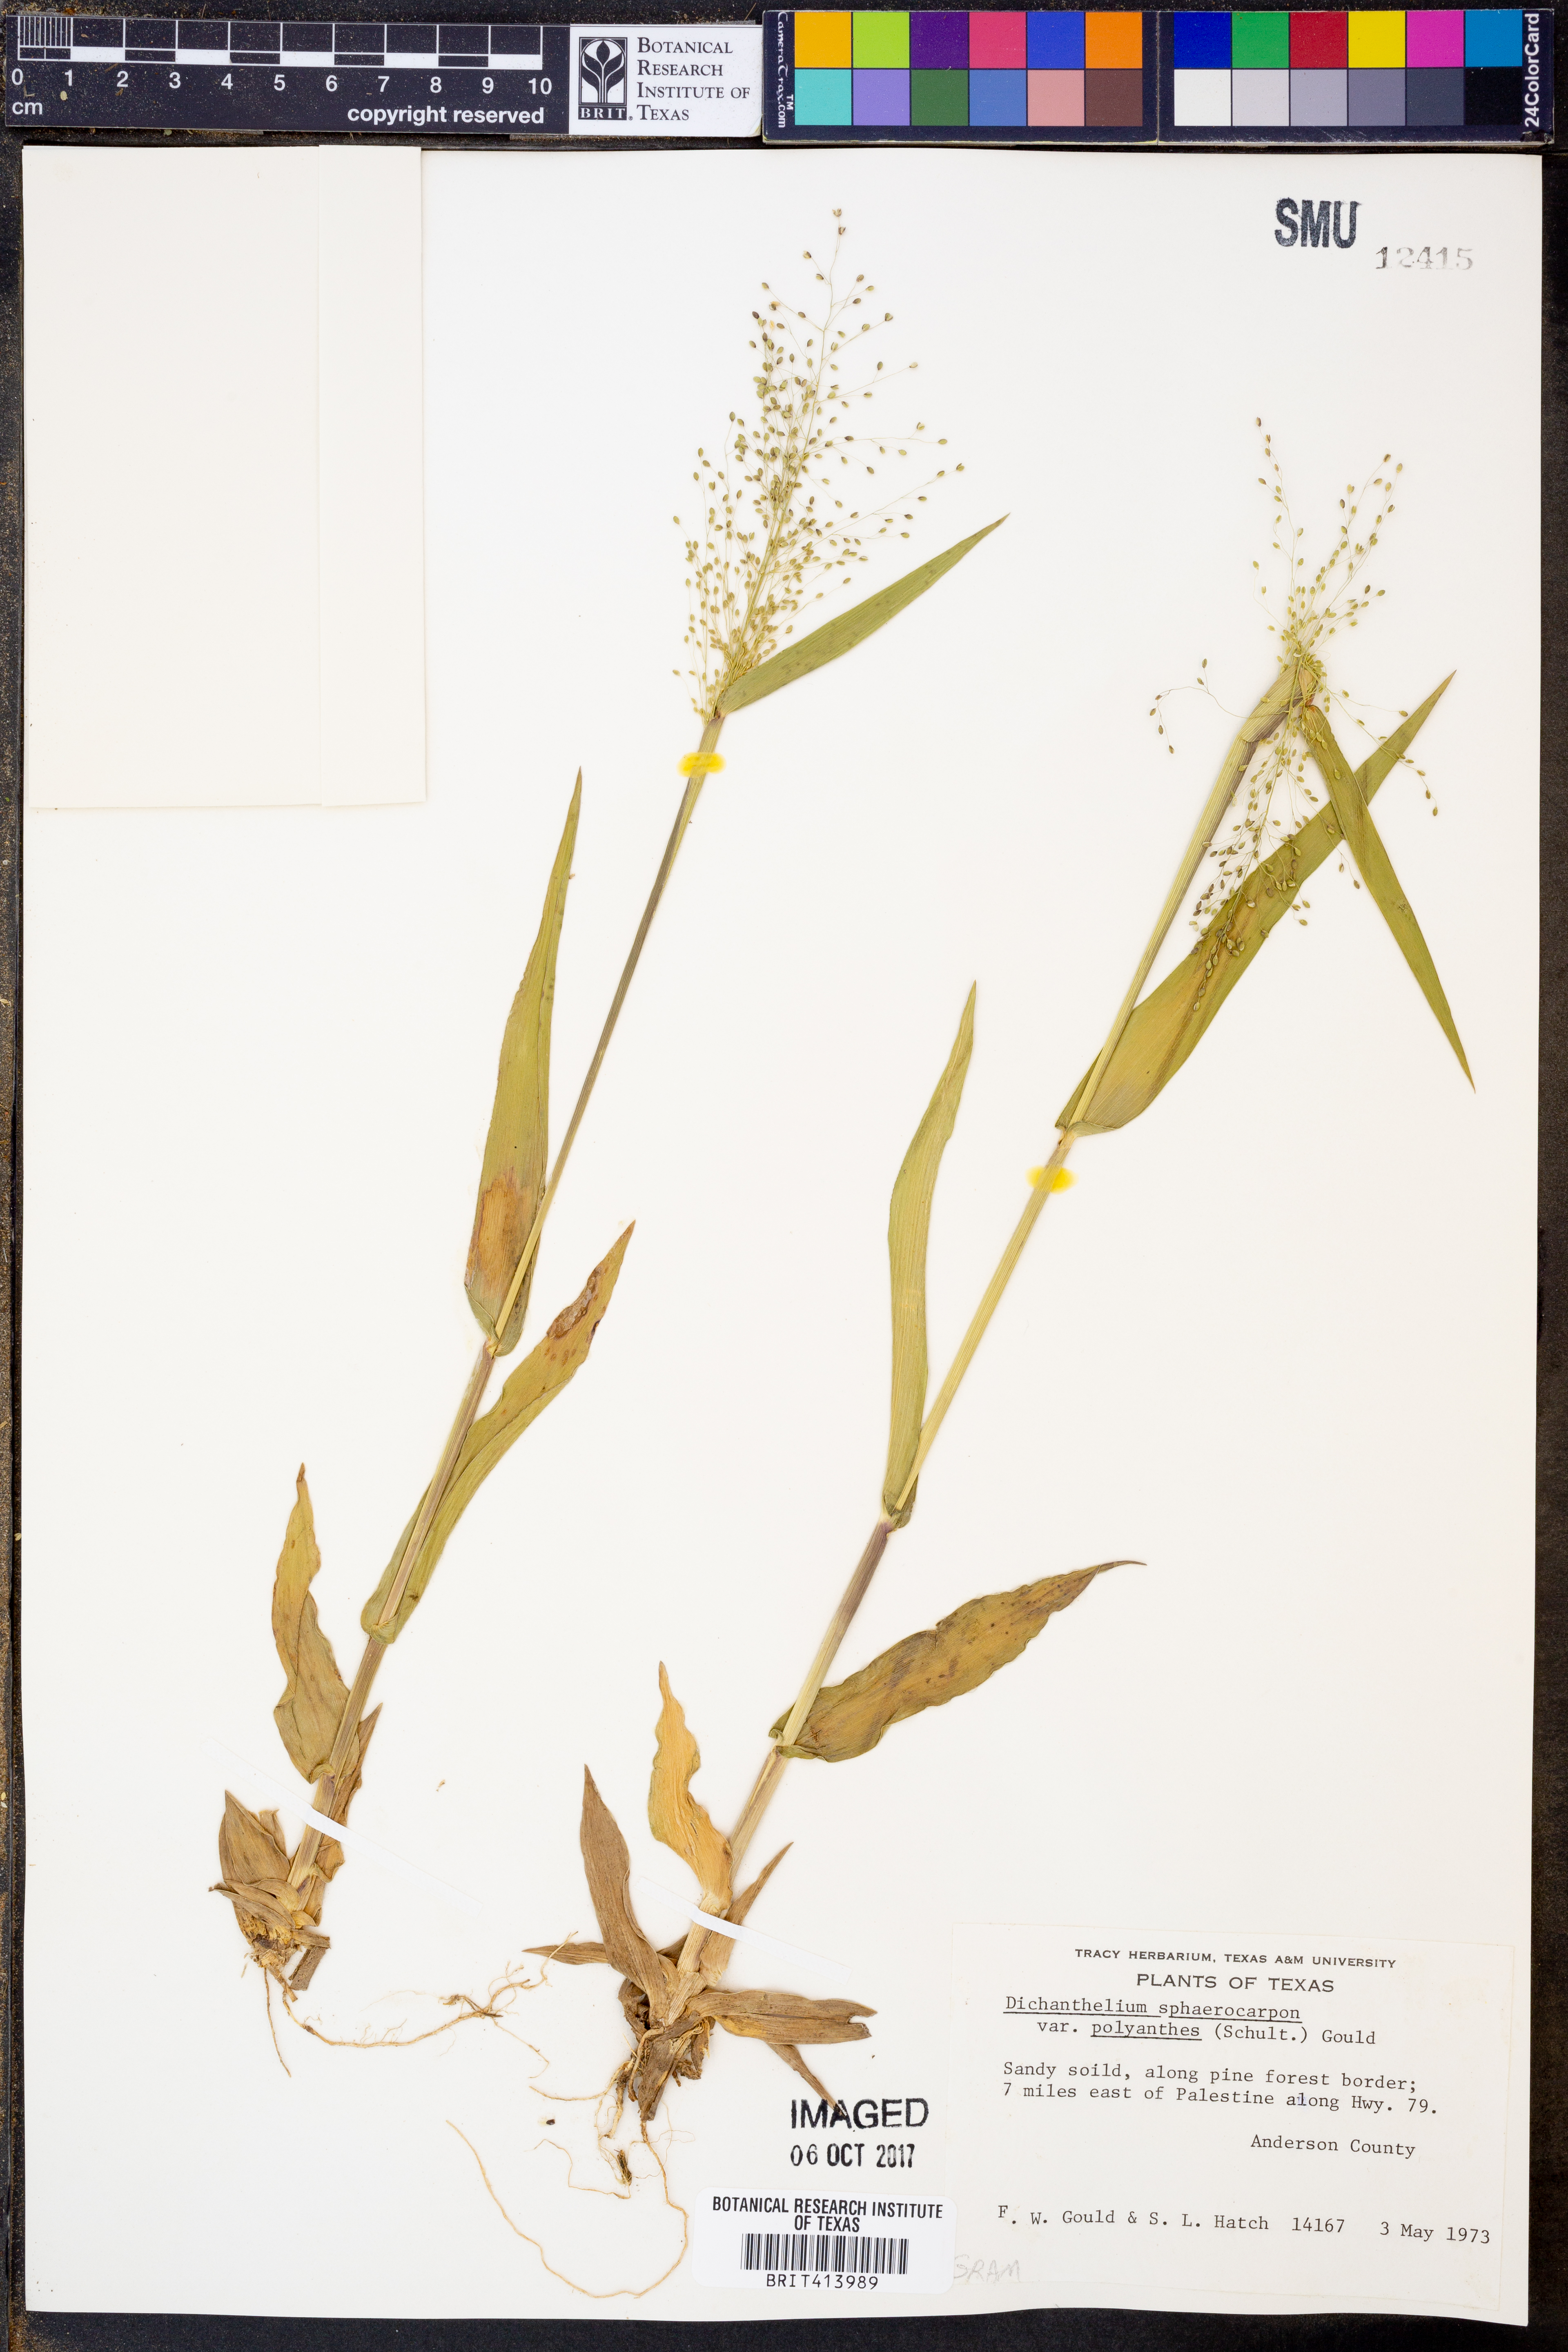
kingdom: Plantae
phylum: Tracheophyta
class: Liliopsida
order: Poales
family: Poaceae
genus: Dichanthelium
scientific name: Dichanthelium polyanthes
